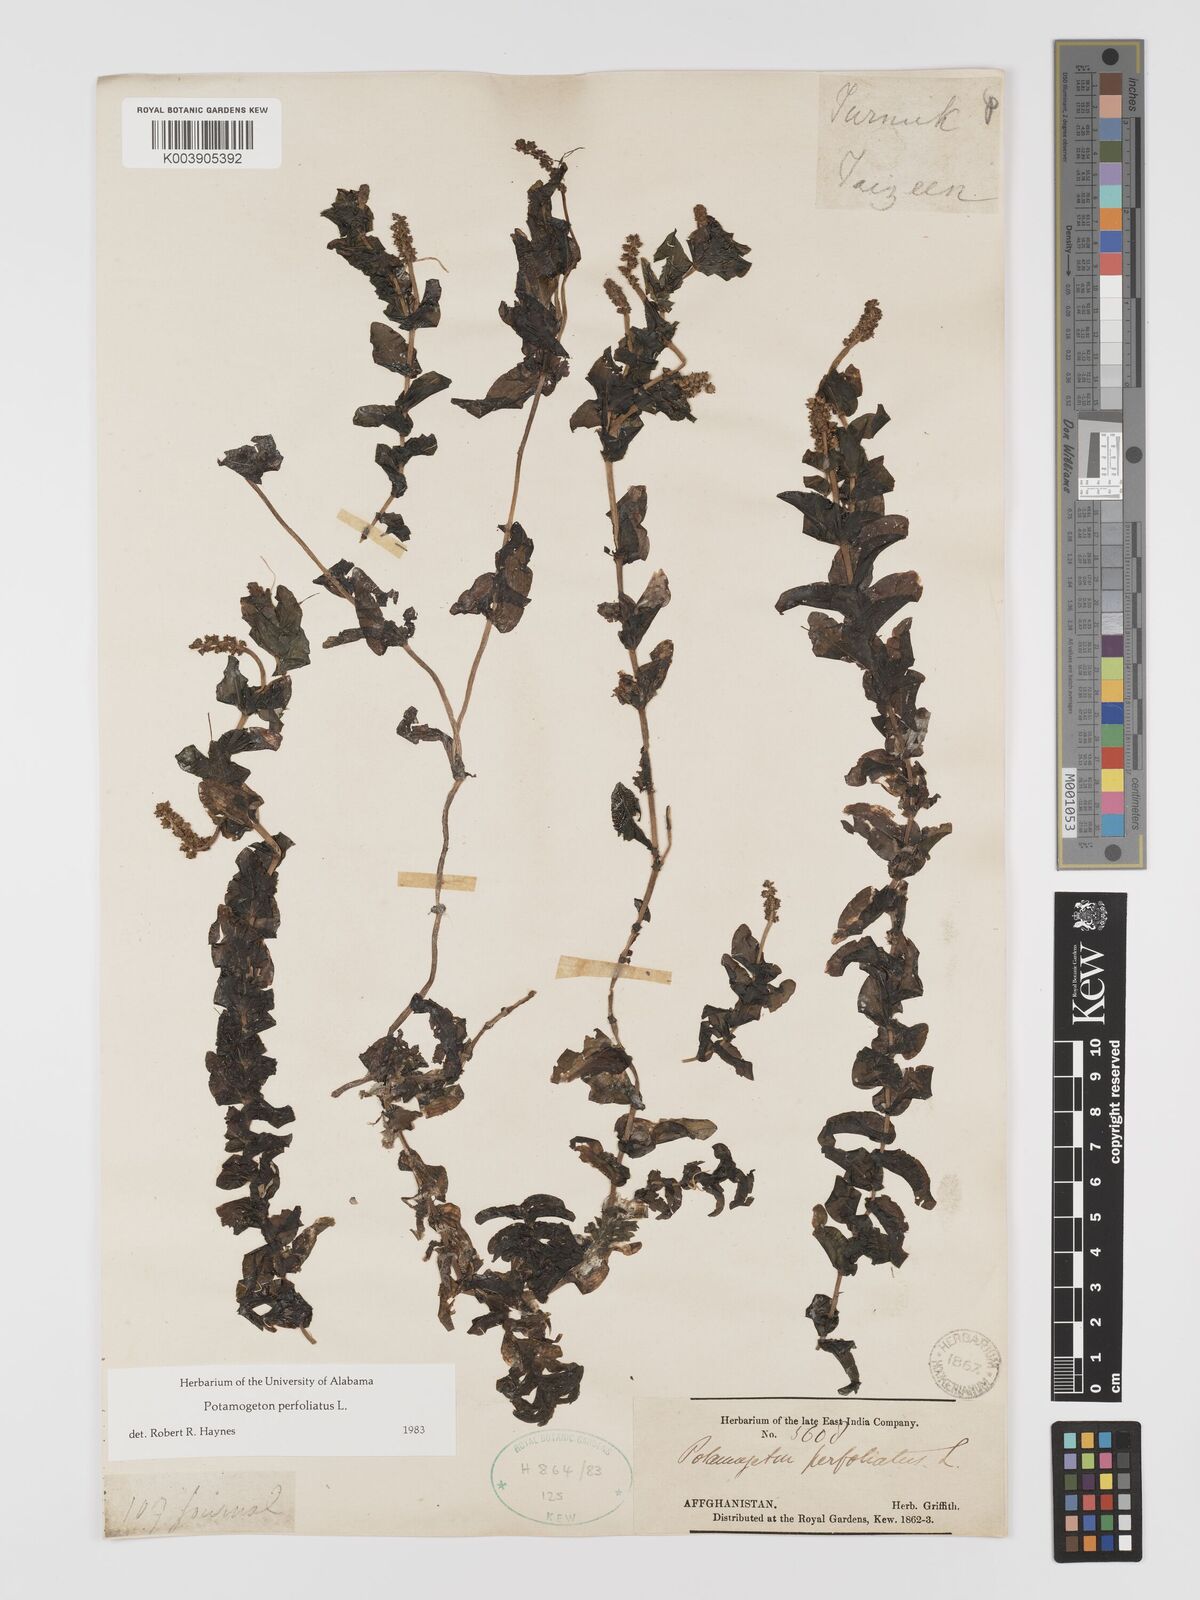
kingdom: Plantae
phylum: Tracheophyta
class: Liliopsida
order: Alismatales
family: Potamogetonaceae
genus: Potamogeton
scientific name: Potamogeton perfoliatus
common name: Perfoliate pondweed
